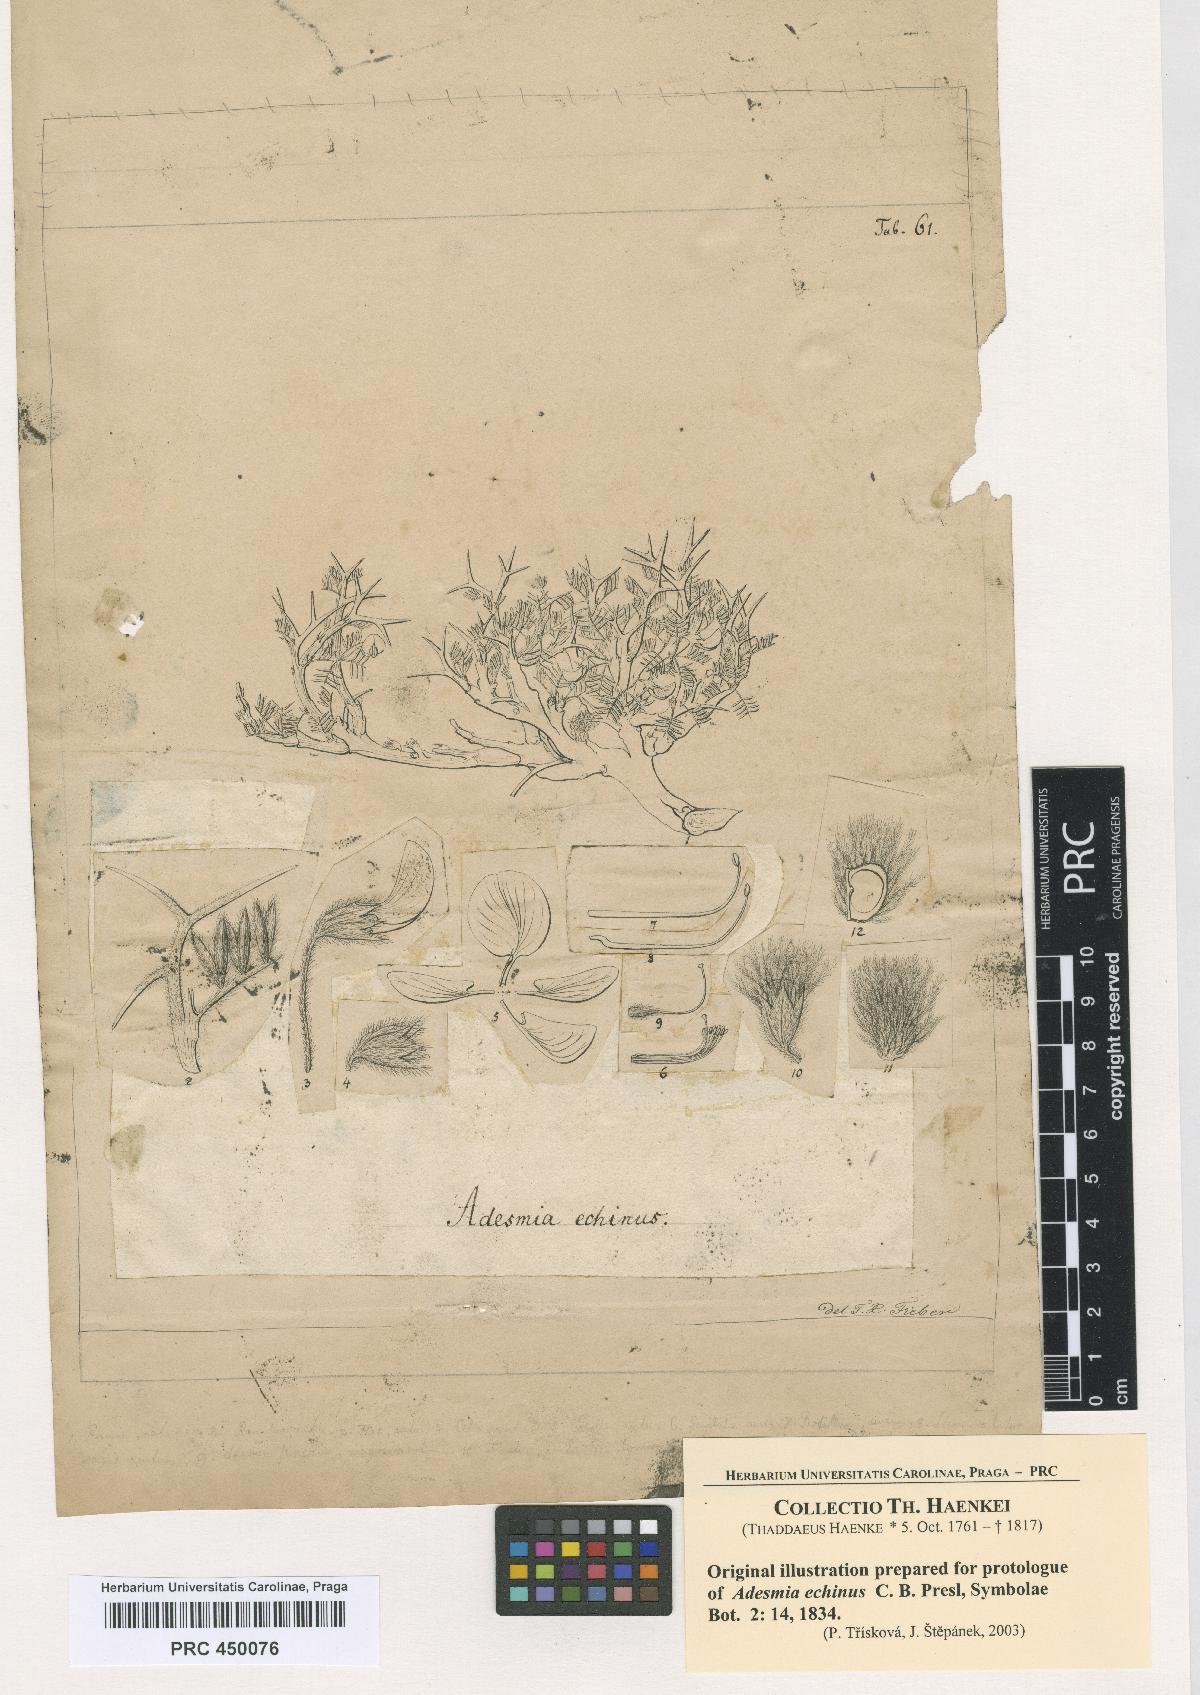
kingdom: Plantae
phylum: Tracheophyta
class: Magnoliopsida
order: Fabales
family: Fabaceae
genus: Adesmia
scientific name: Adesmia echinus
